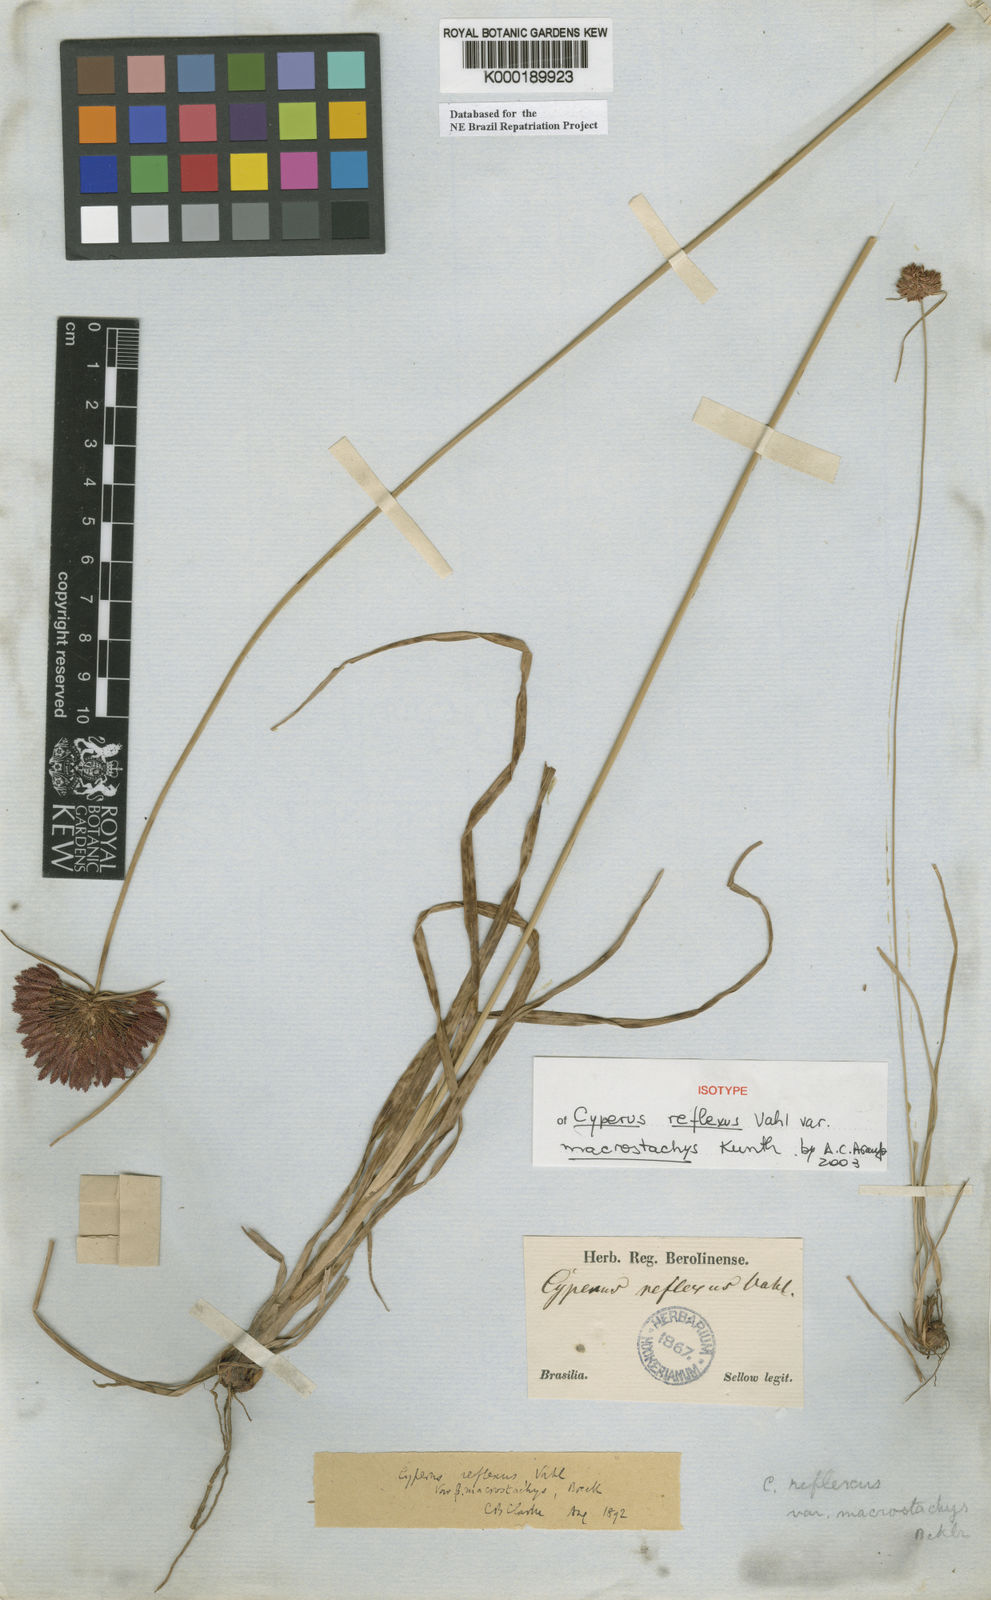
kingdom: Plantae
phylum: Tracheophyta
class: Liliopsida
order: Poales
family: Cyperaceae
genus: Cyperus
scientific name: Cyperus reflexus
